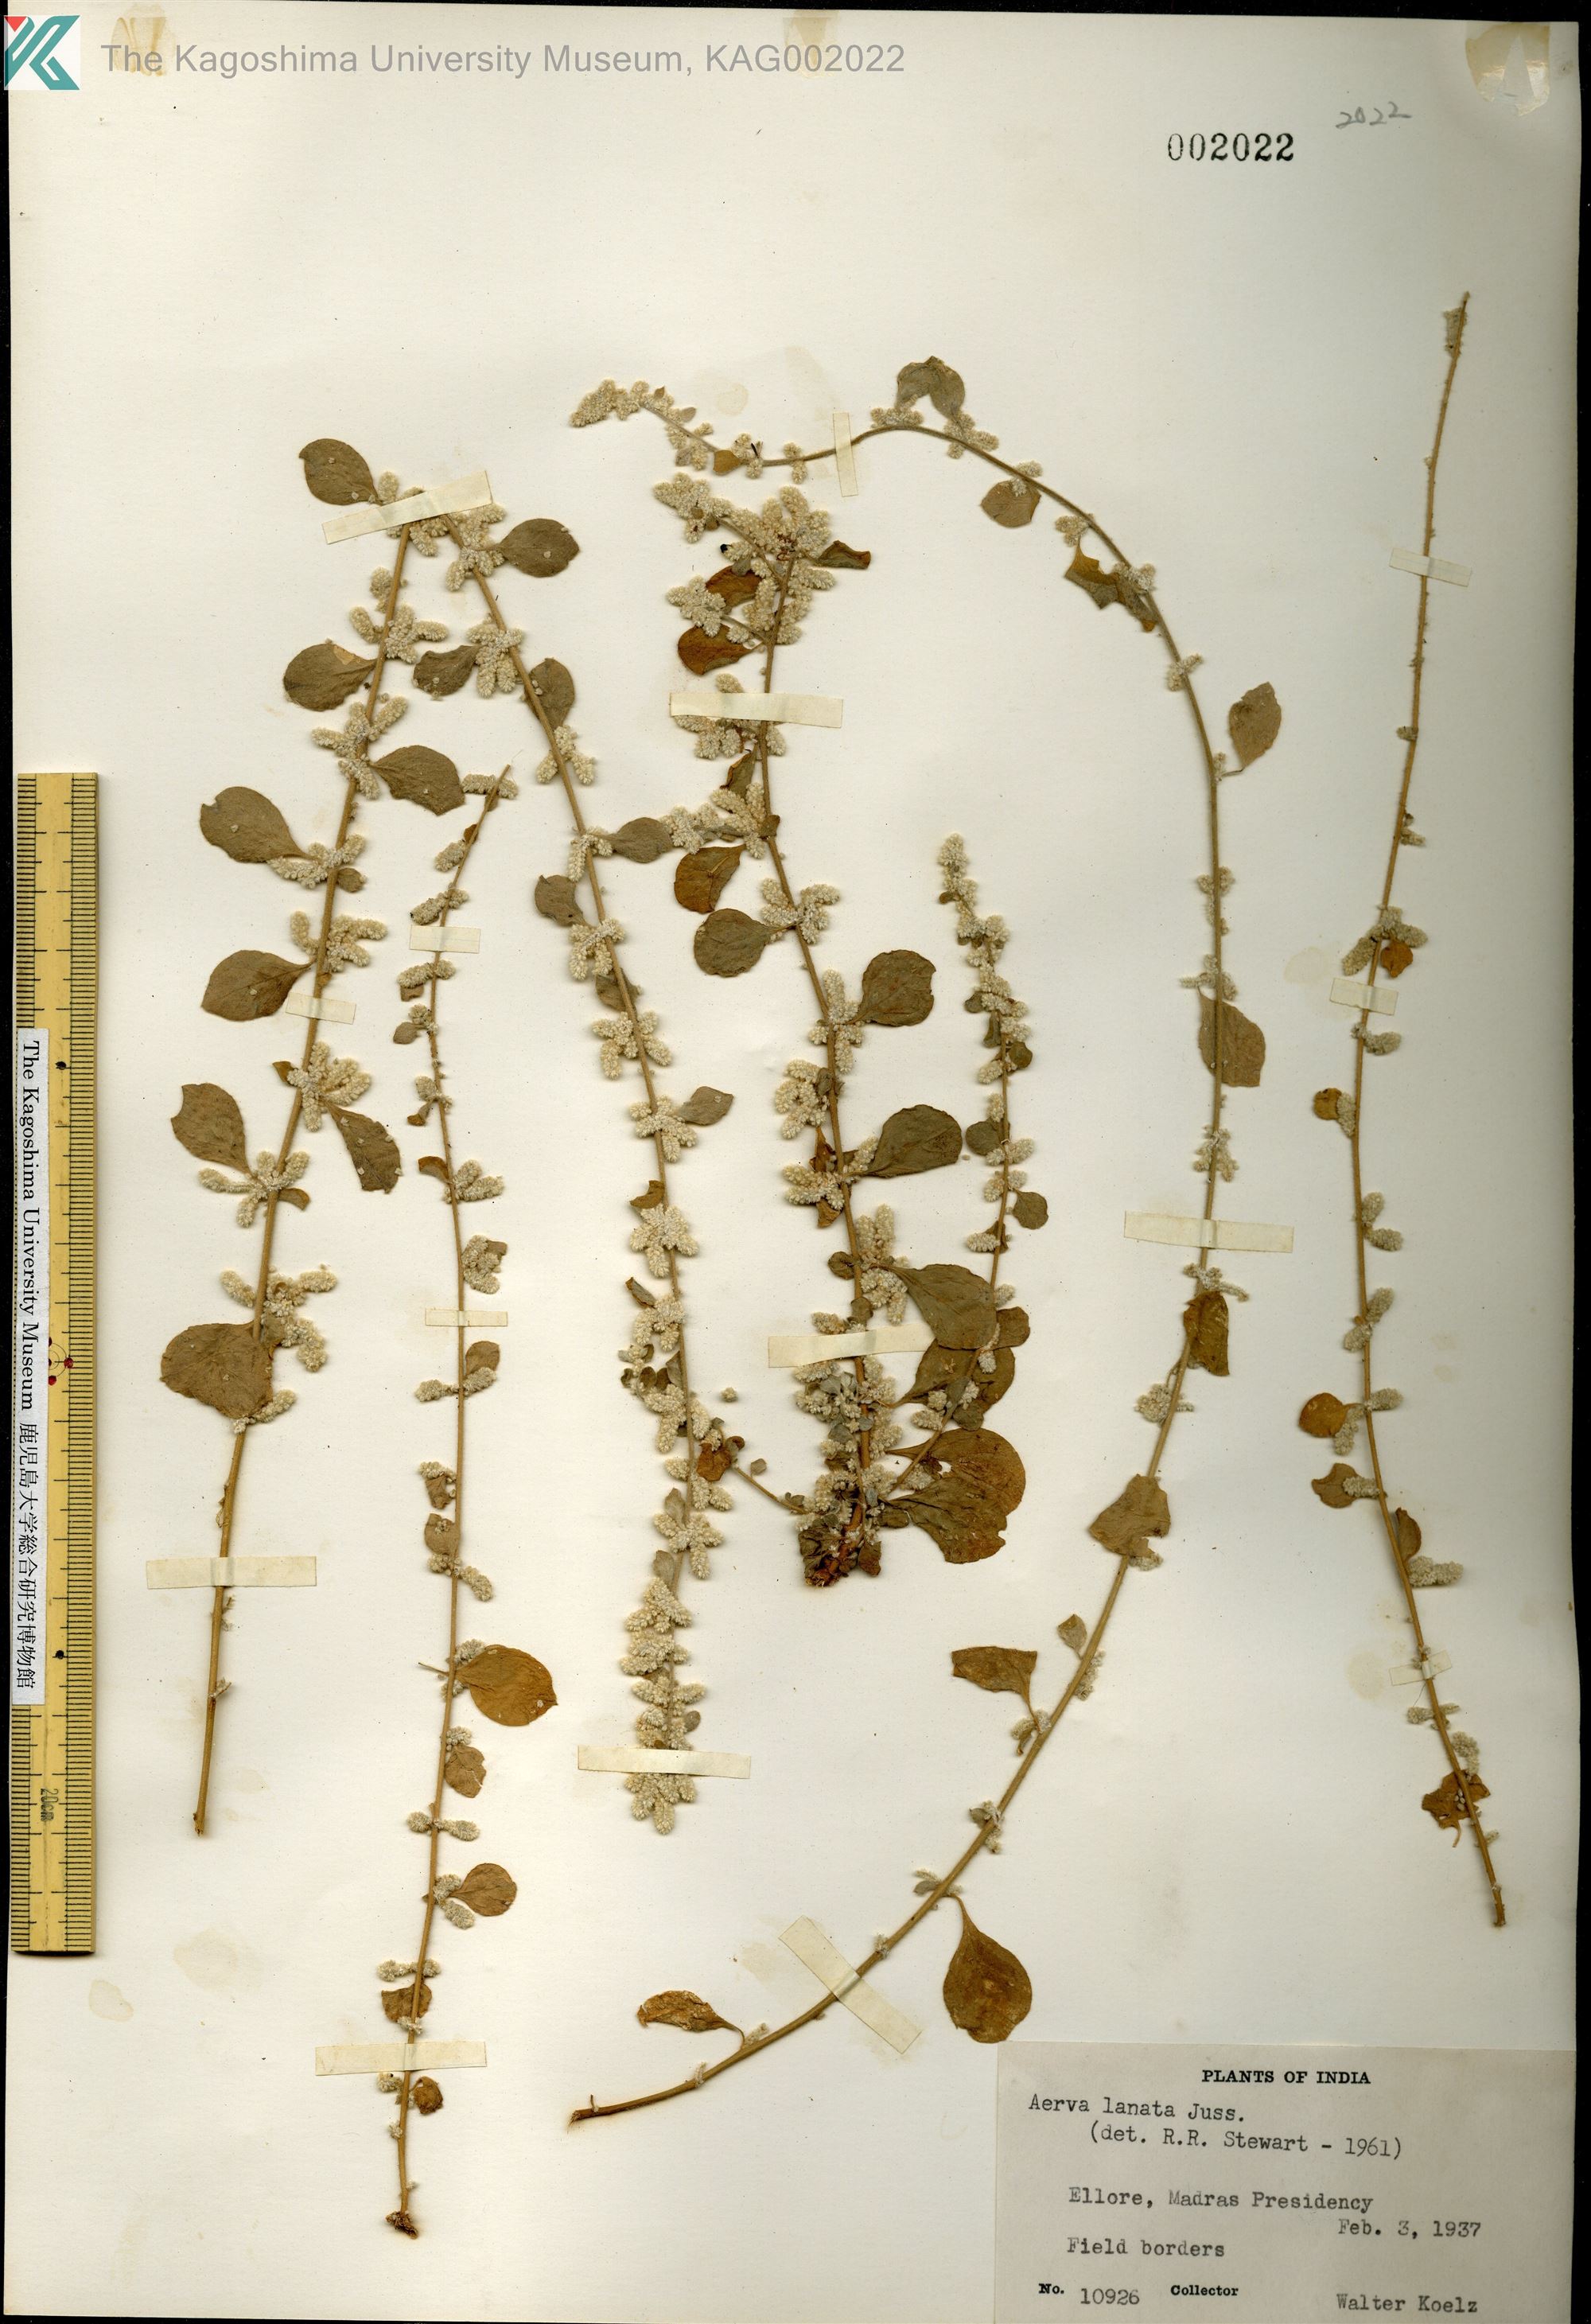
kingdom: Plantae
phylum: Tracheophyta
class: Magnoliopsida
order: Caryophyllales
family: Amaranthaceae
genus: Ouret
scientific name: Ouret lanata
